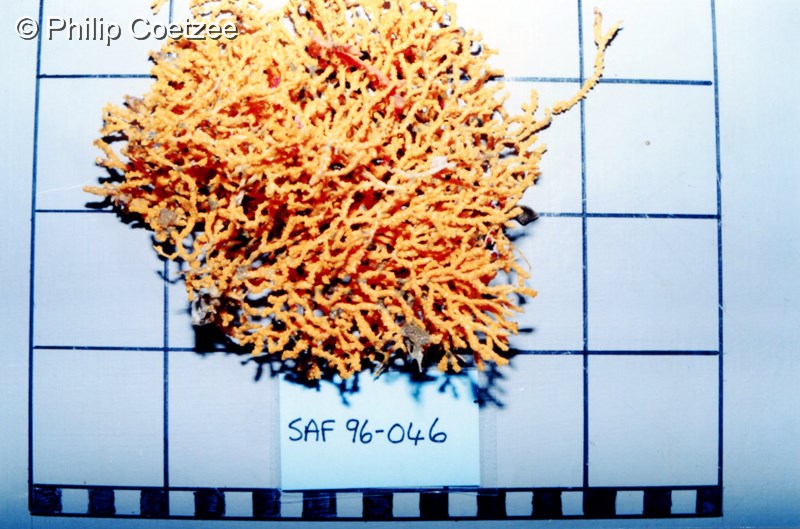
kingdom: Animalia
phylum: Cnidaria
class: Anthozoa
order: Malacalcyonacea
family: Melithaeidae
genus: Melithaea
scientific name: Melithaea rubra
